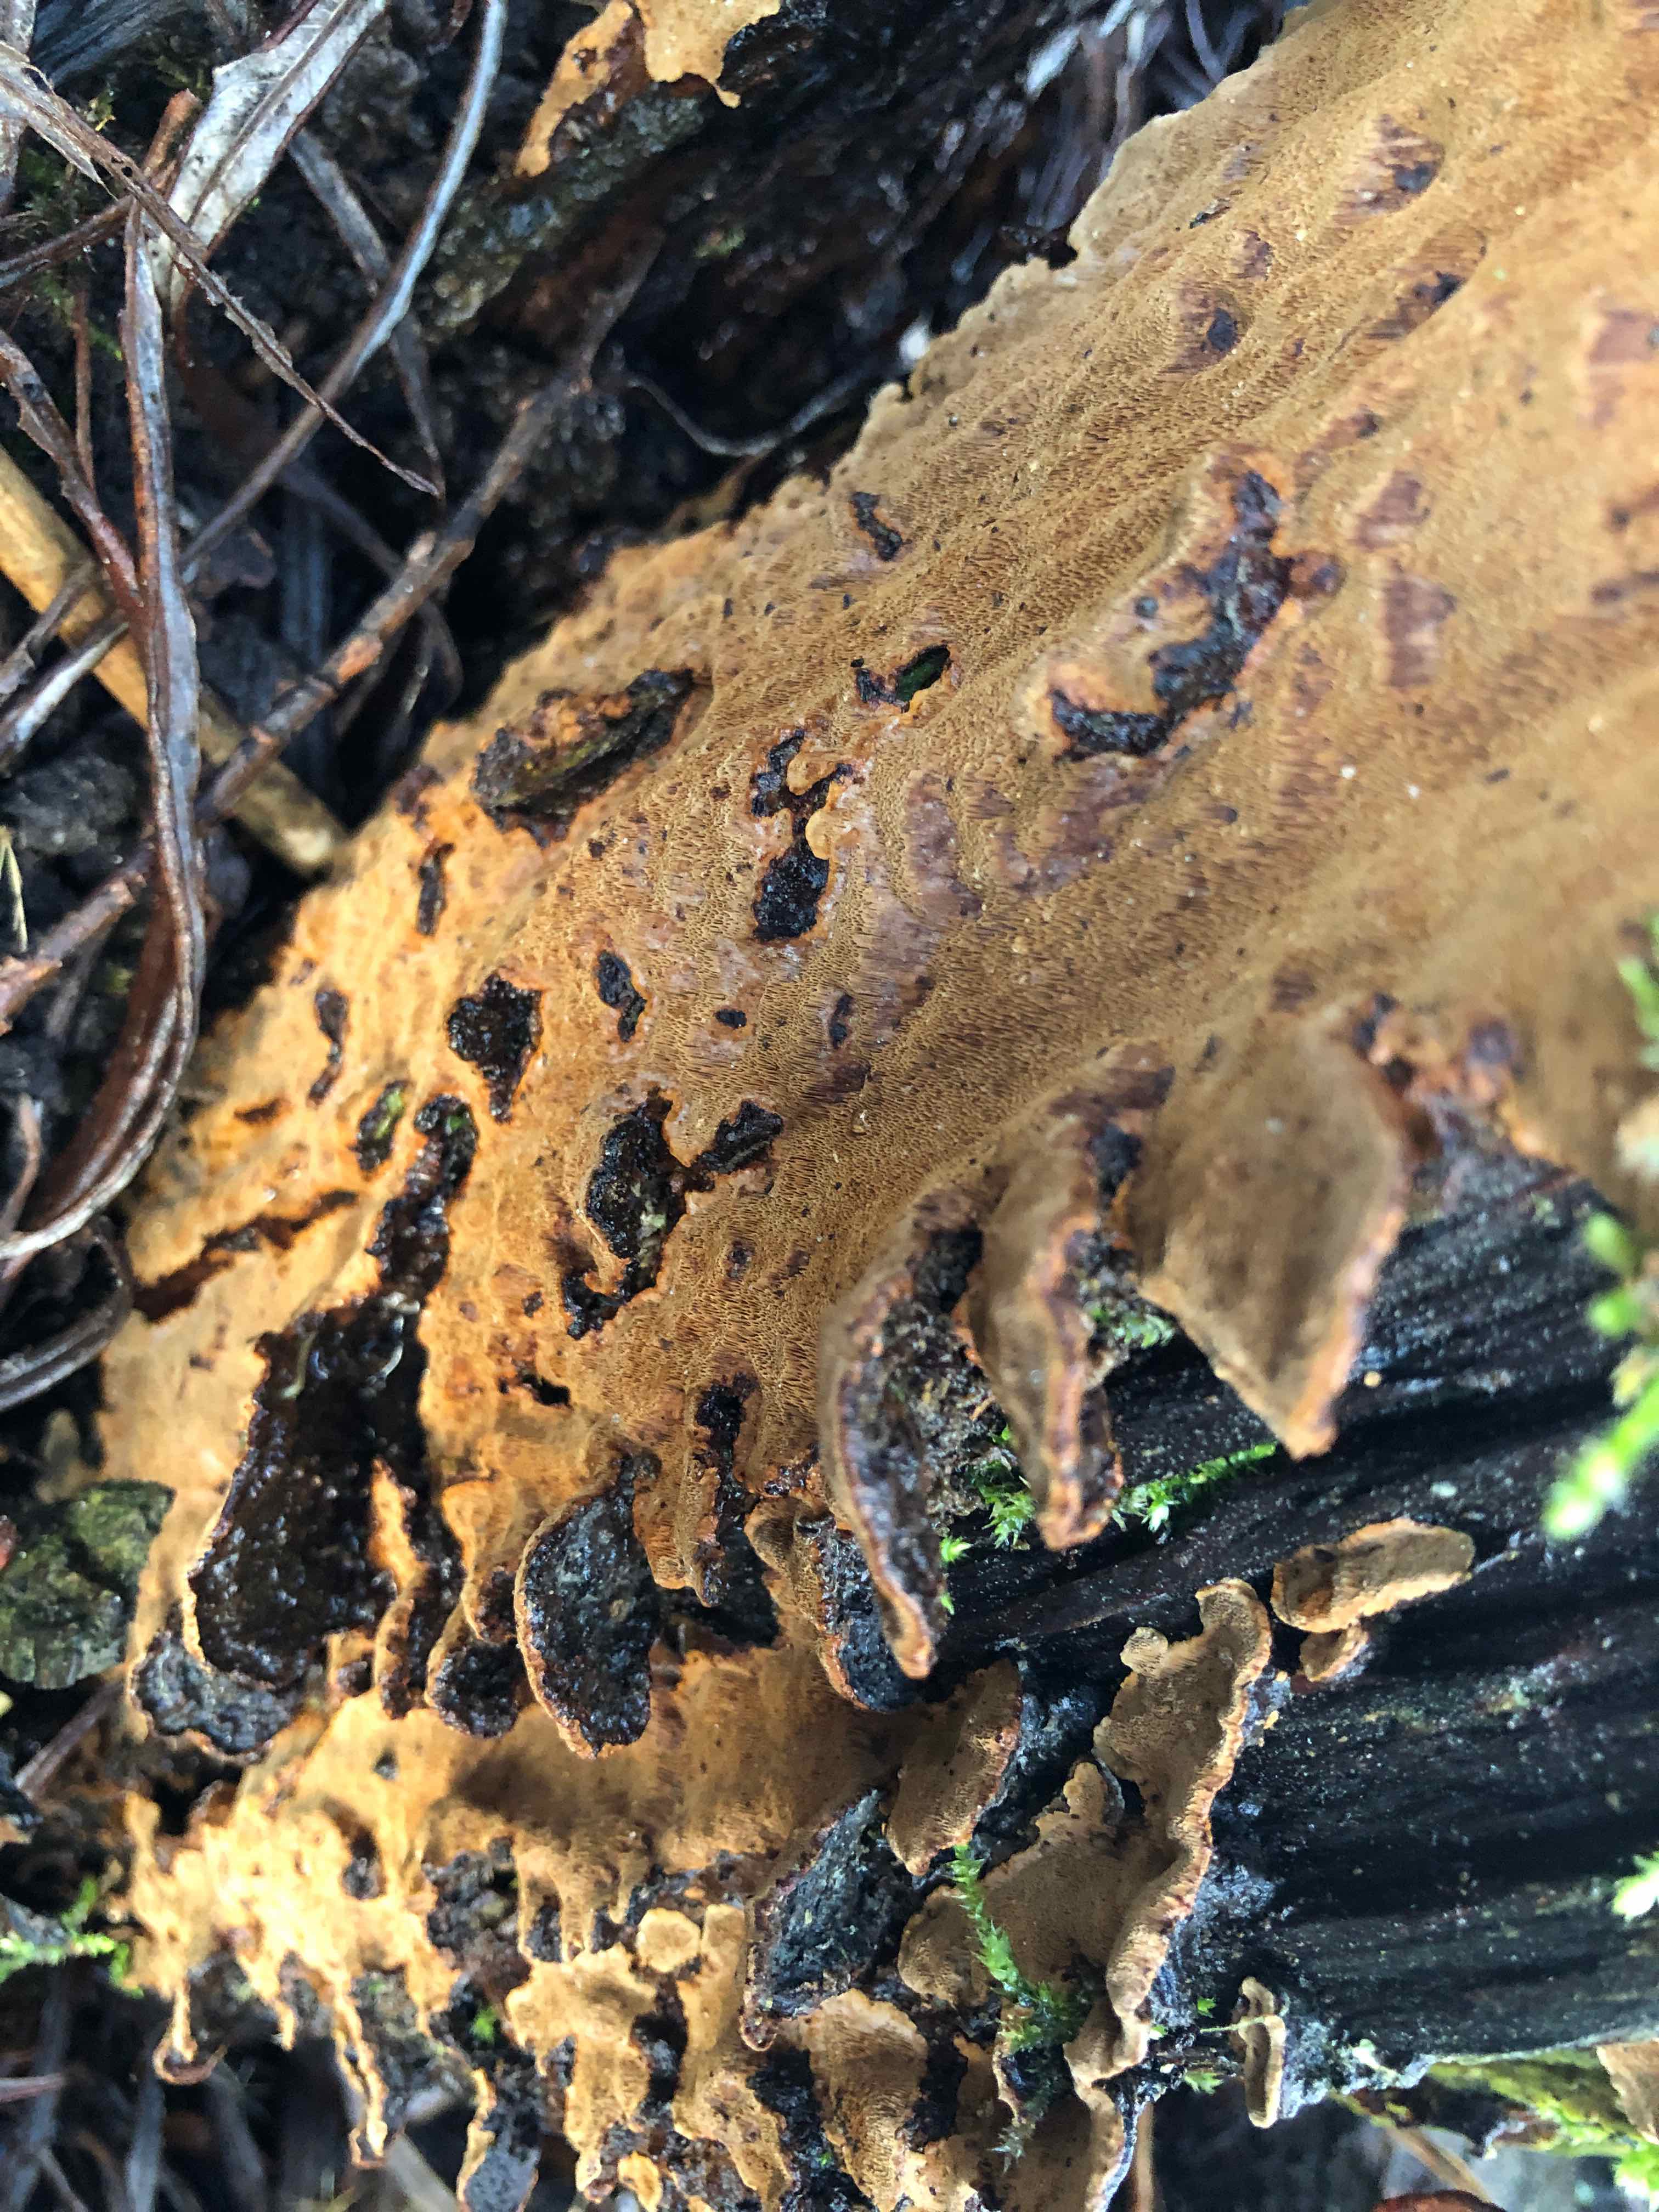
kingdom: Fungi
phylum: Basidiomycota
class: Agaricomycetes
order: Hymenochaetales
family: Hymenochaetaceae
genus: Phellinopsis
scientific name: Phellinopsis conchata
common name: pile-ildporesvamp
